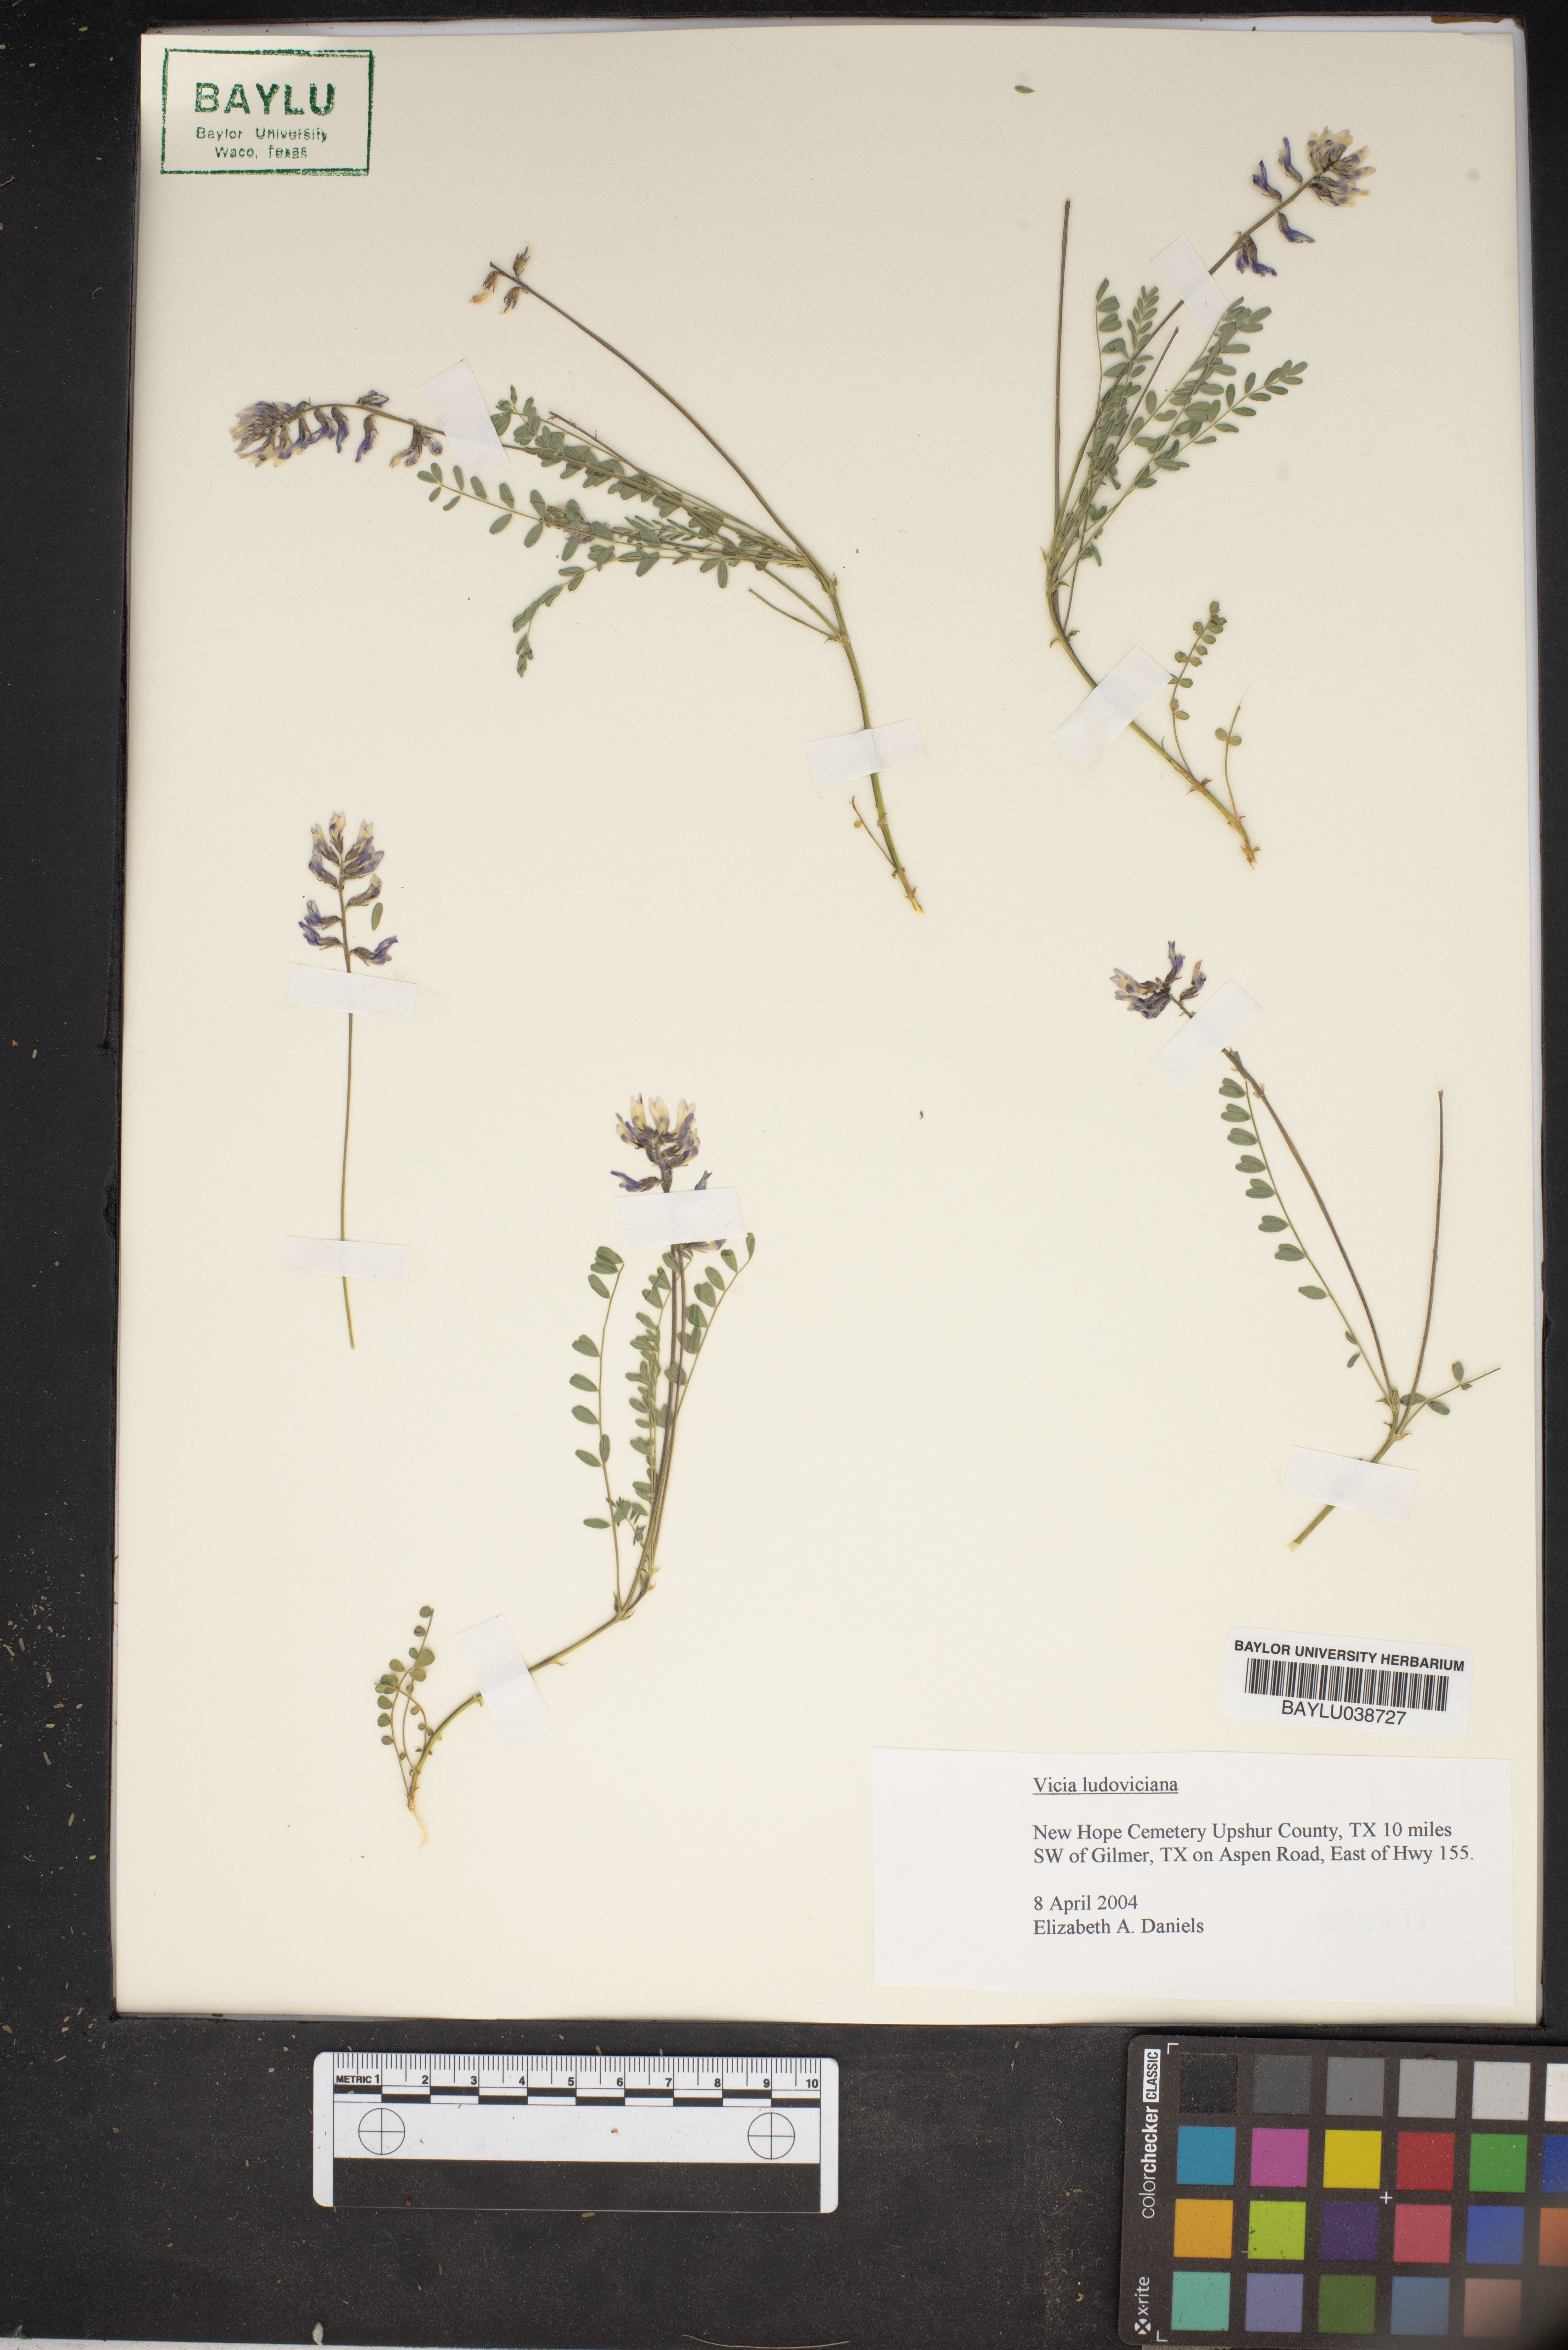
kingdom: Plantae
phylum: Tracheophyta
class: Magnoliopsida
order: Fabales
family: Fabaceae
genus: Vicia
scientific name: Vicia ludoviciana
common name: Louisiana vetch
